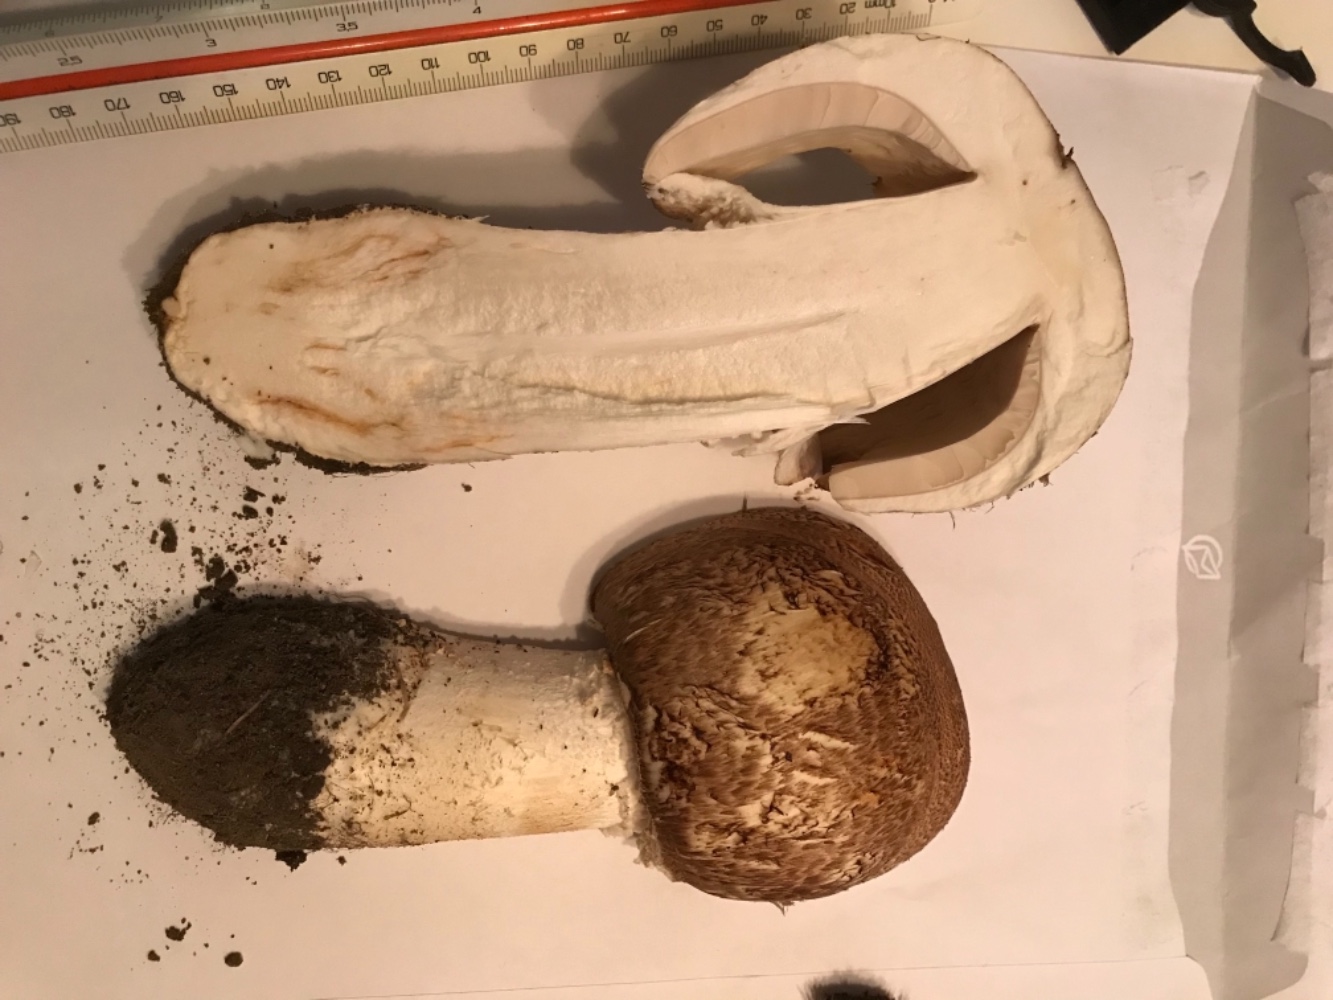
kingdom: Fungi
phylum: Basidiomycota
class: Agaricomycetes
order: Agaricales
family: Agaricaceae
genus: Agaricus
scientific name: Agaricus augustus
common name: prægtig champignon
